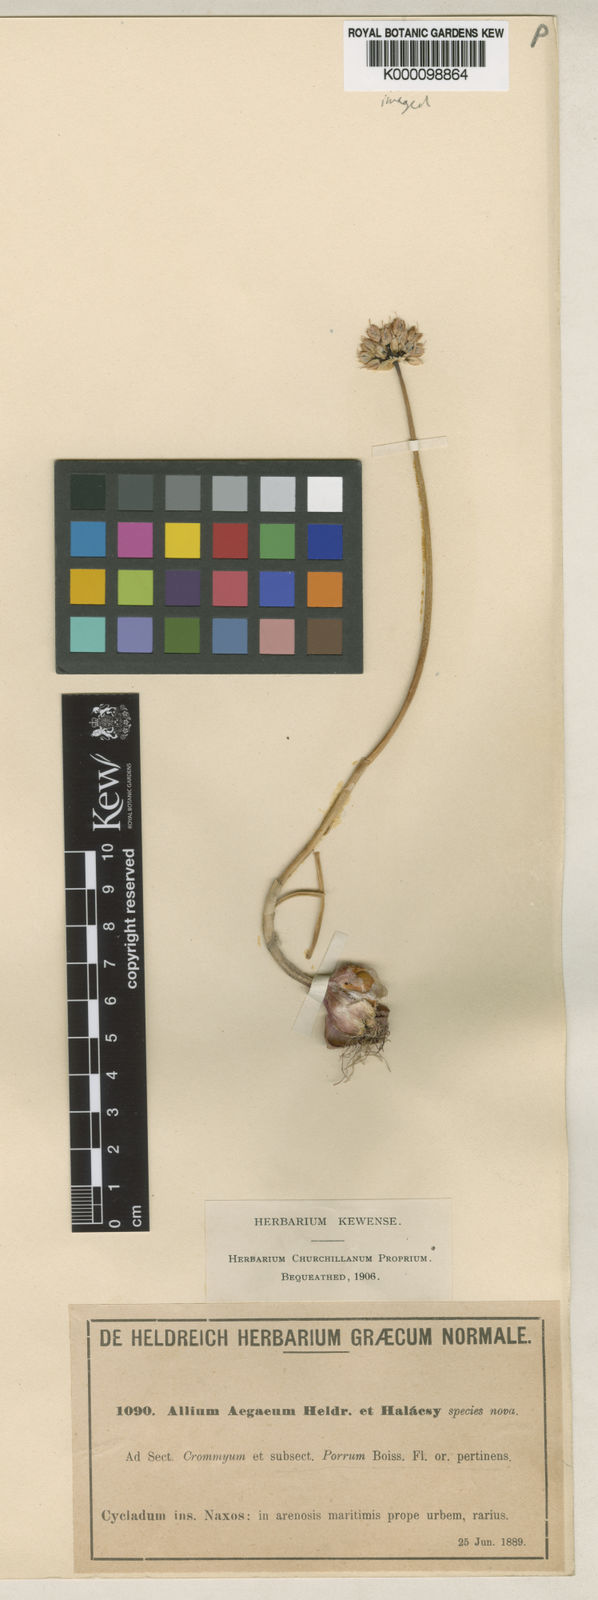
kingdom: Plantae
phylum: Tracheophyta
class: Liliopsida
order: Asparagales
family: Amaryllidaceae
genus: Allium
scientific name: Allium sphaerocephalon
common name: Round-headed leek
